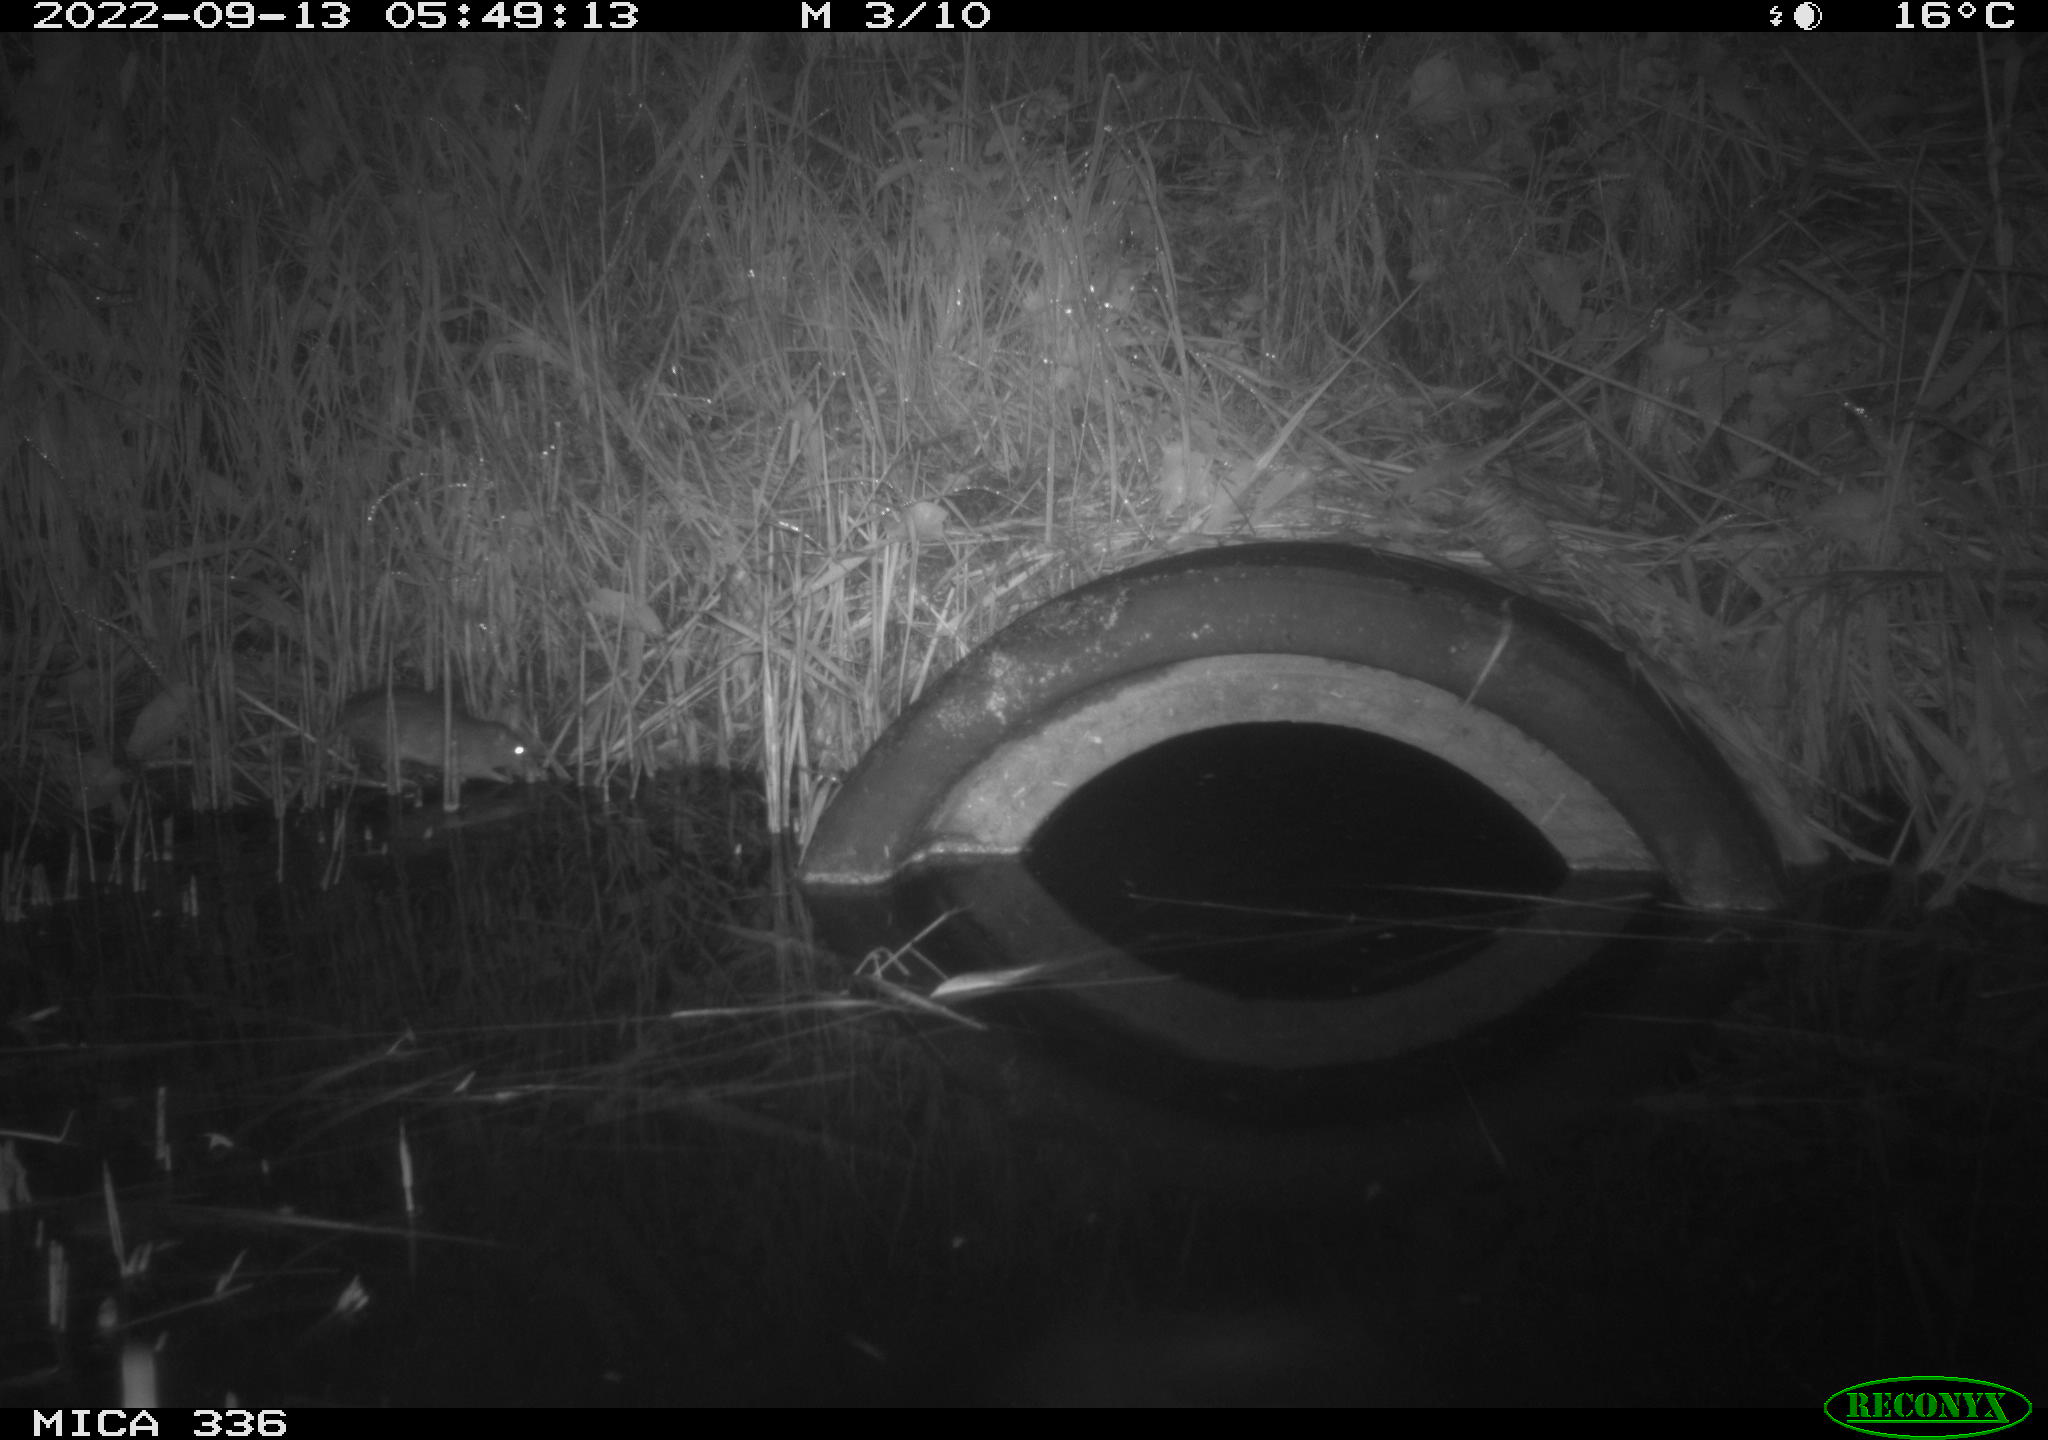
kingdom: Animalia
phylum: Chordata
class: Mammalia
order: Rodentia
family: Muridae
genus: Rattus
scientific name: Rattus norvegicus
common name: Brown rat
